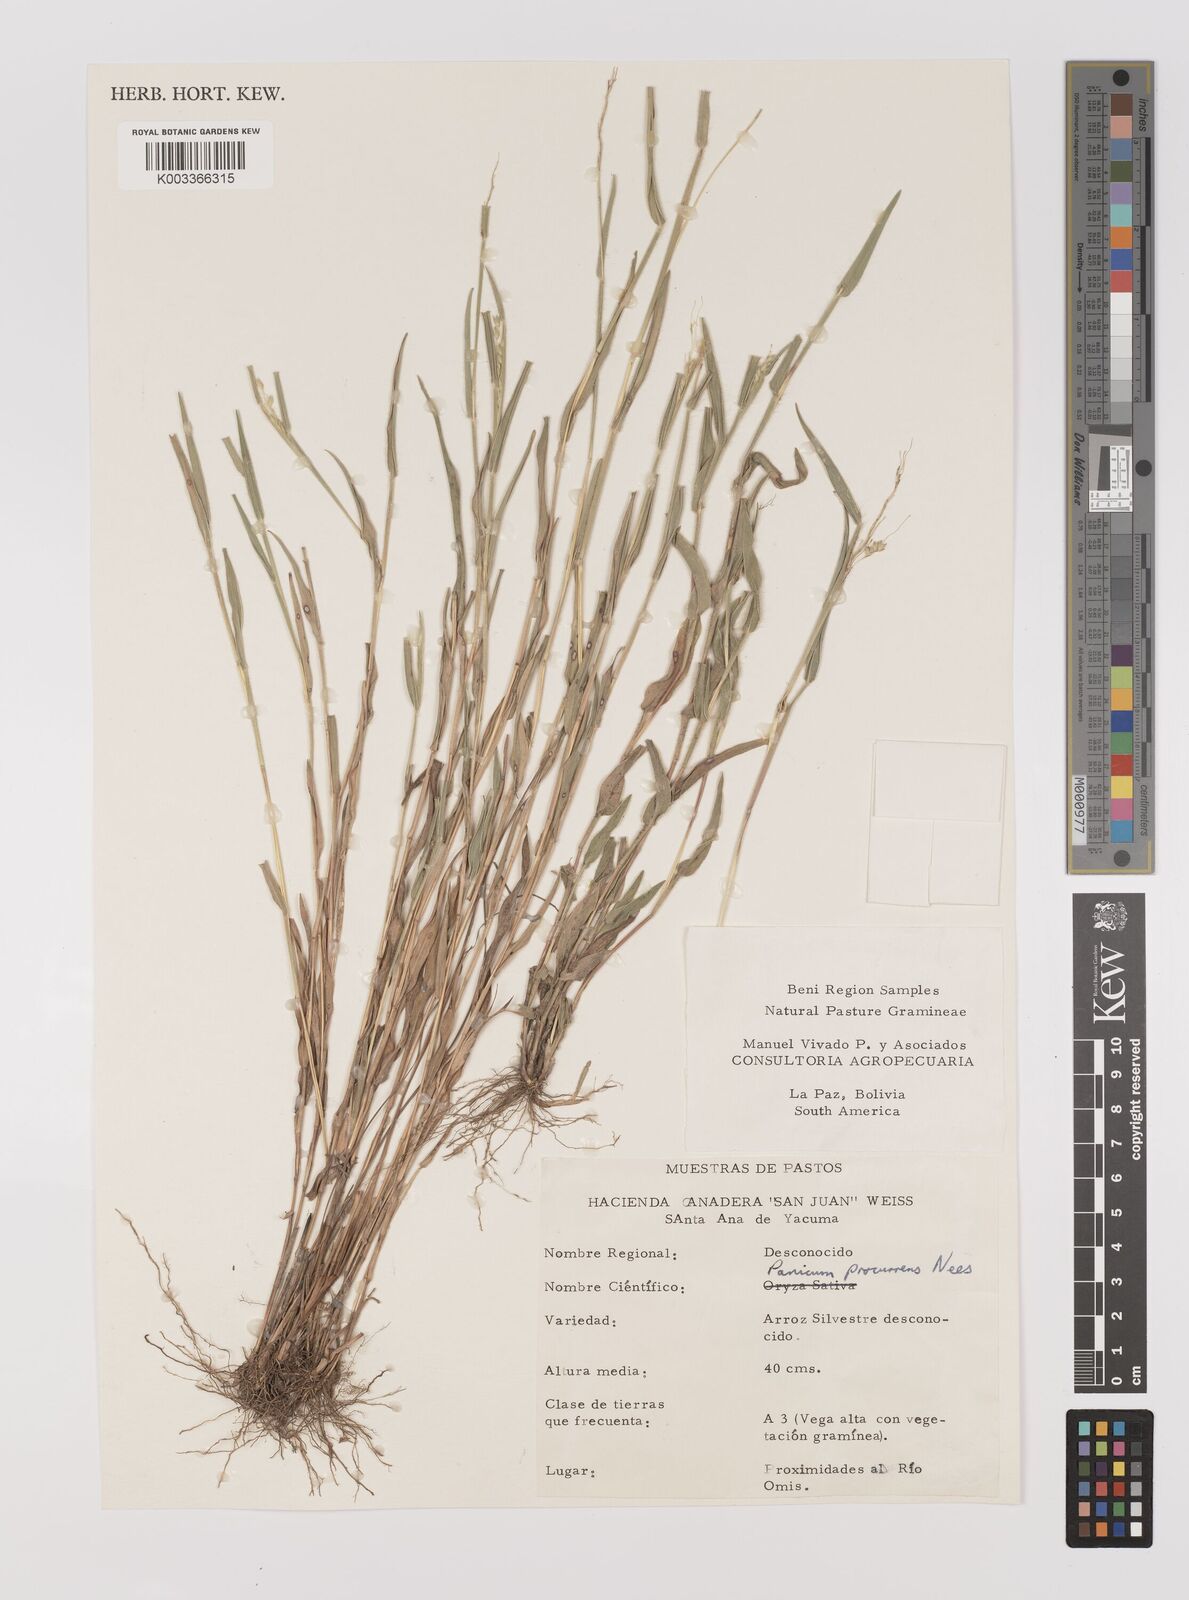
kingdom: Plantae
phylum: Tracheophyta
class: Liliopsida
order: Poales
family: Poaceae
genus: Oedochloa
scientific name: Oedochloa procurrens
